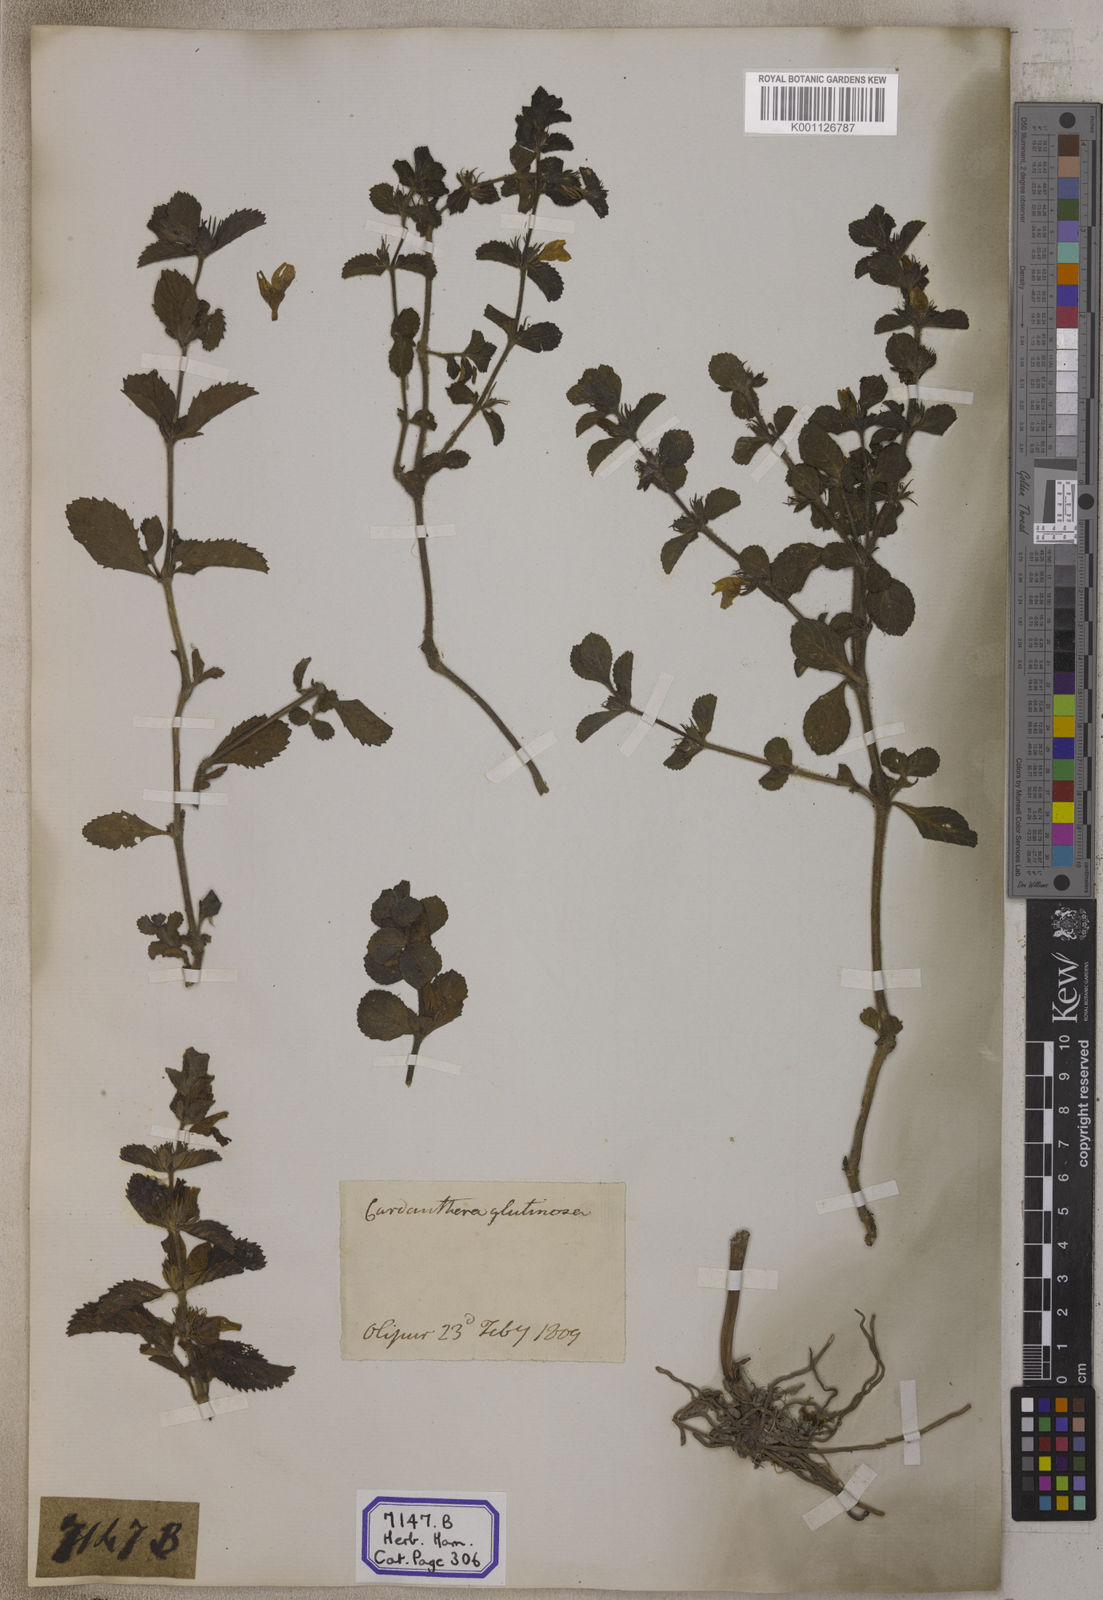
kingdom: Plantae
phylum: Tracheophyta
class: Magnoliopsida
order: Lamiales
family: Plantaginaceae
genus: Adenosma
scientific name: Adenosma
